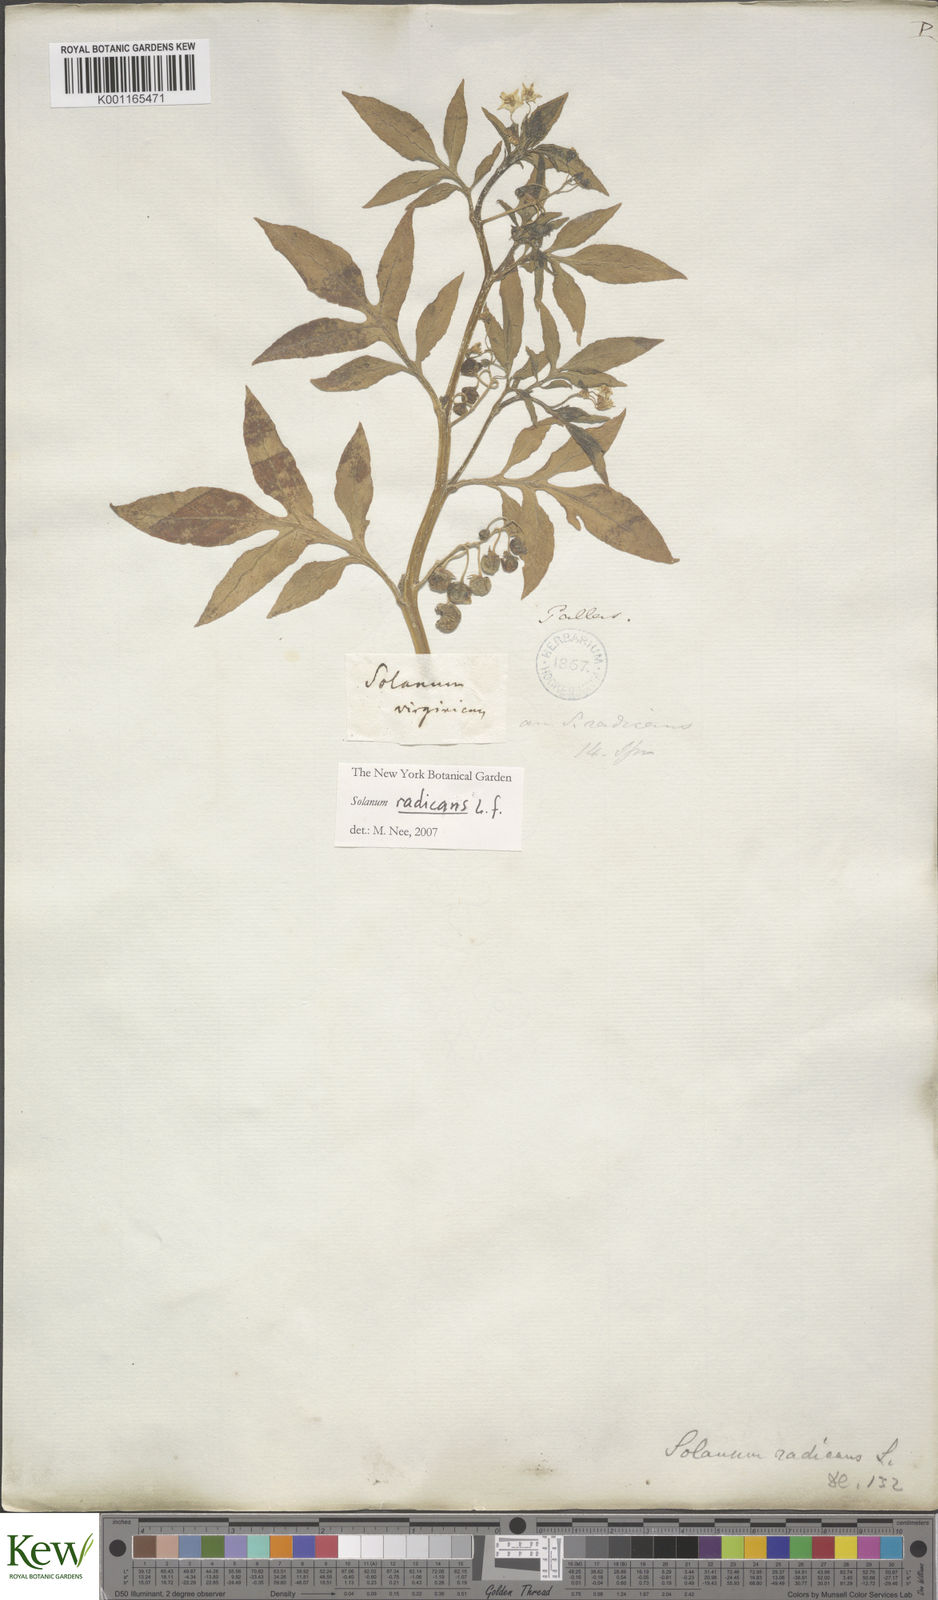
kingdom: Plantae
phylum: Tracheophyta
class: Magnoliopsida
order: Solanales
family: Solanaceae
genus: Solanum
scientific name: Solanum radicans
